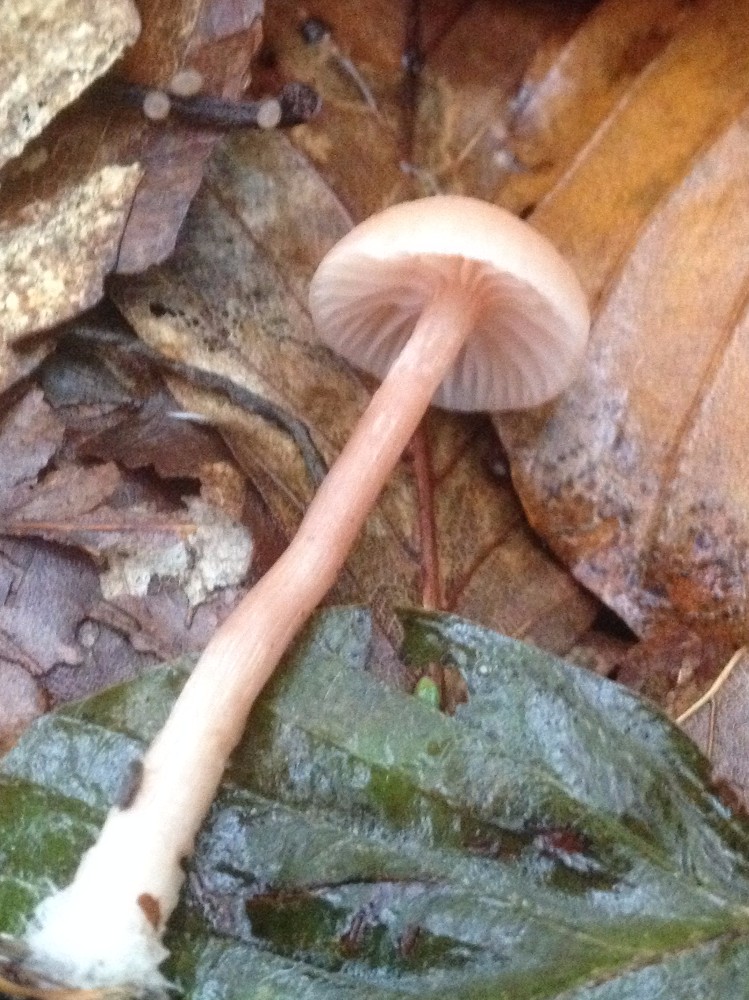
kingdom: Fungi
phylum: Basidiomycota
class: Agaricomycetes
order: Agaricales
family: Hydnangiaceae
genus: Laccaria
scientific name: Laccaria laccata
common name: rød ametysthat
